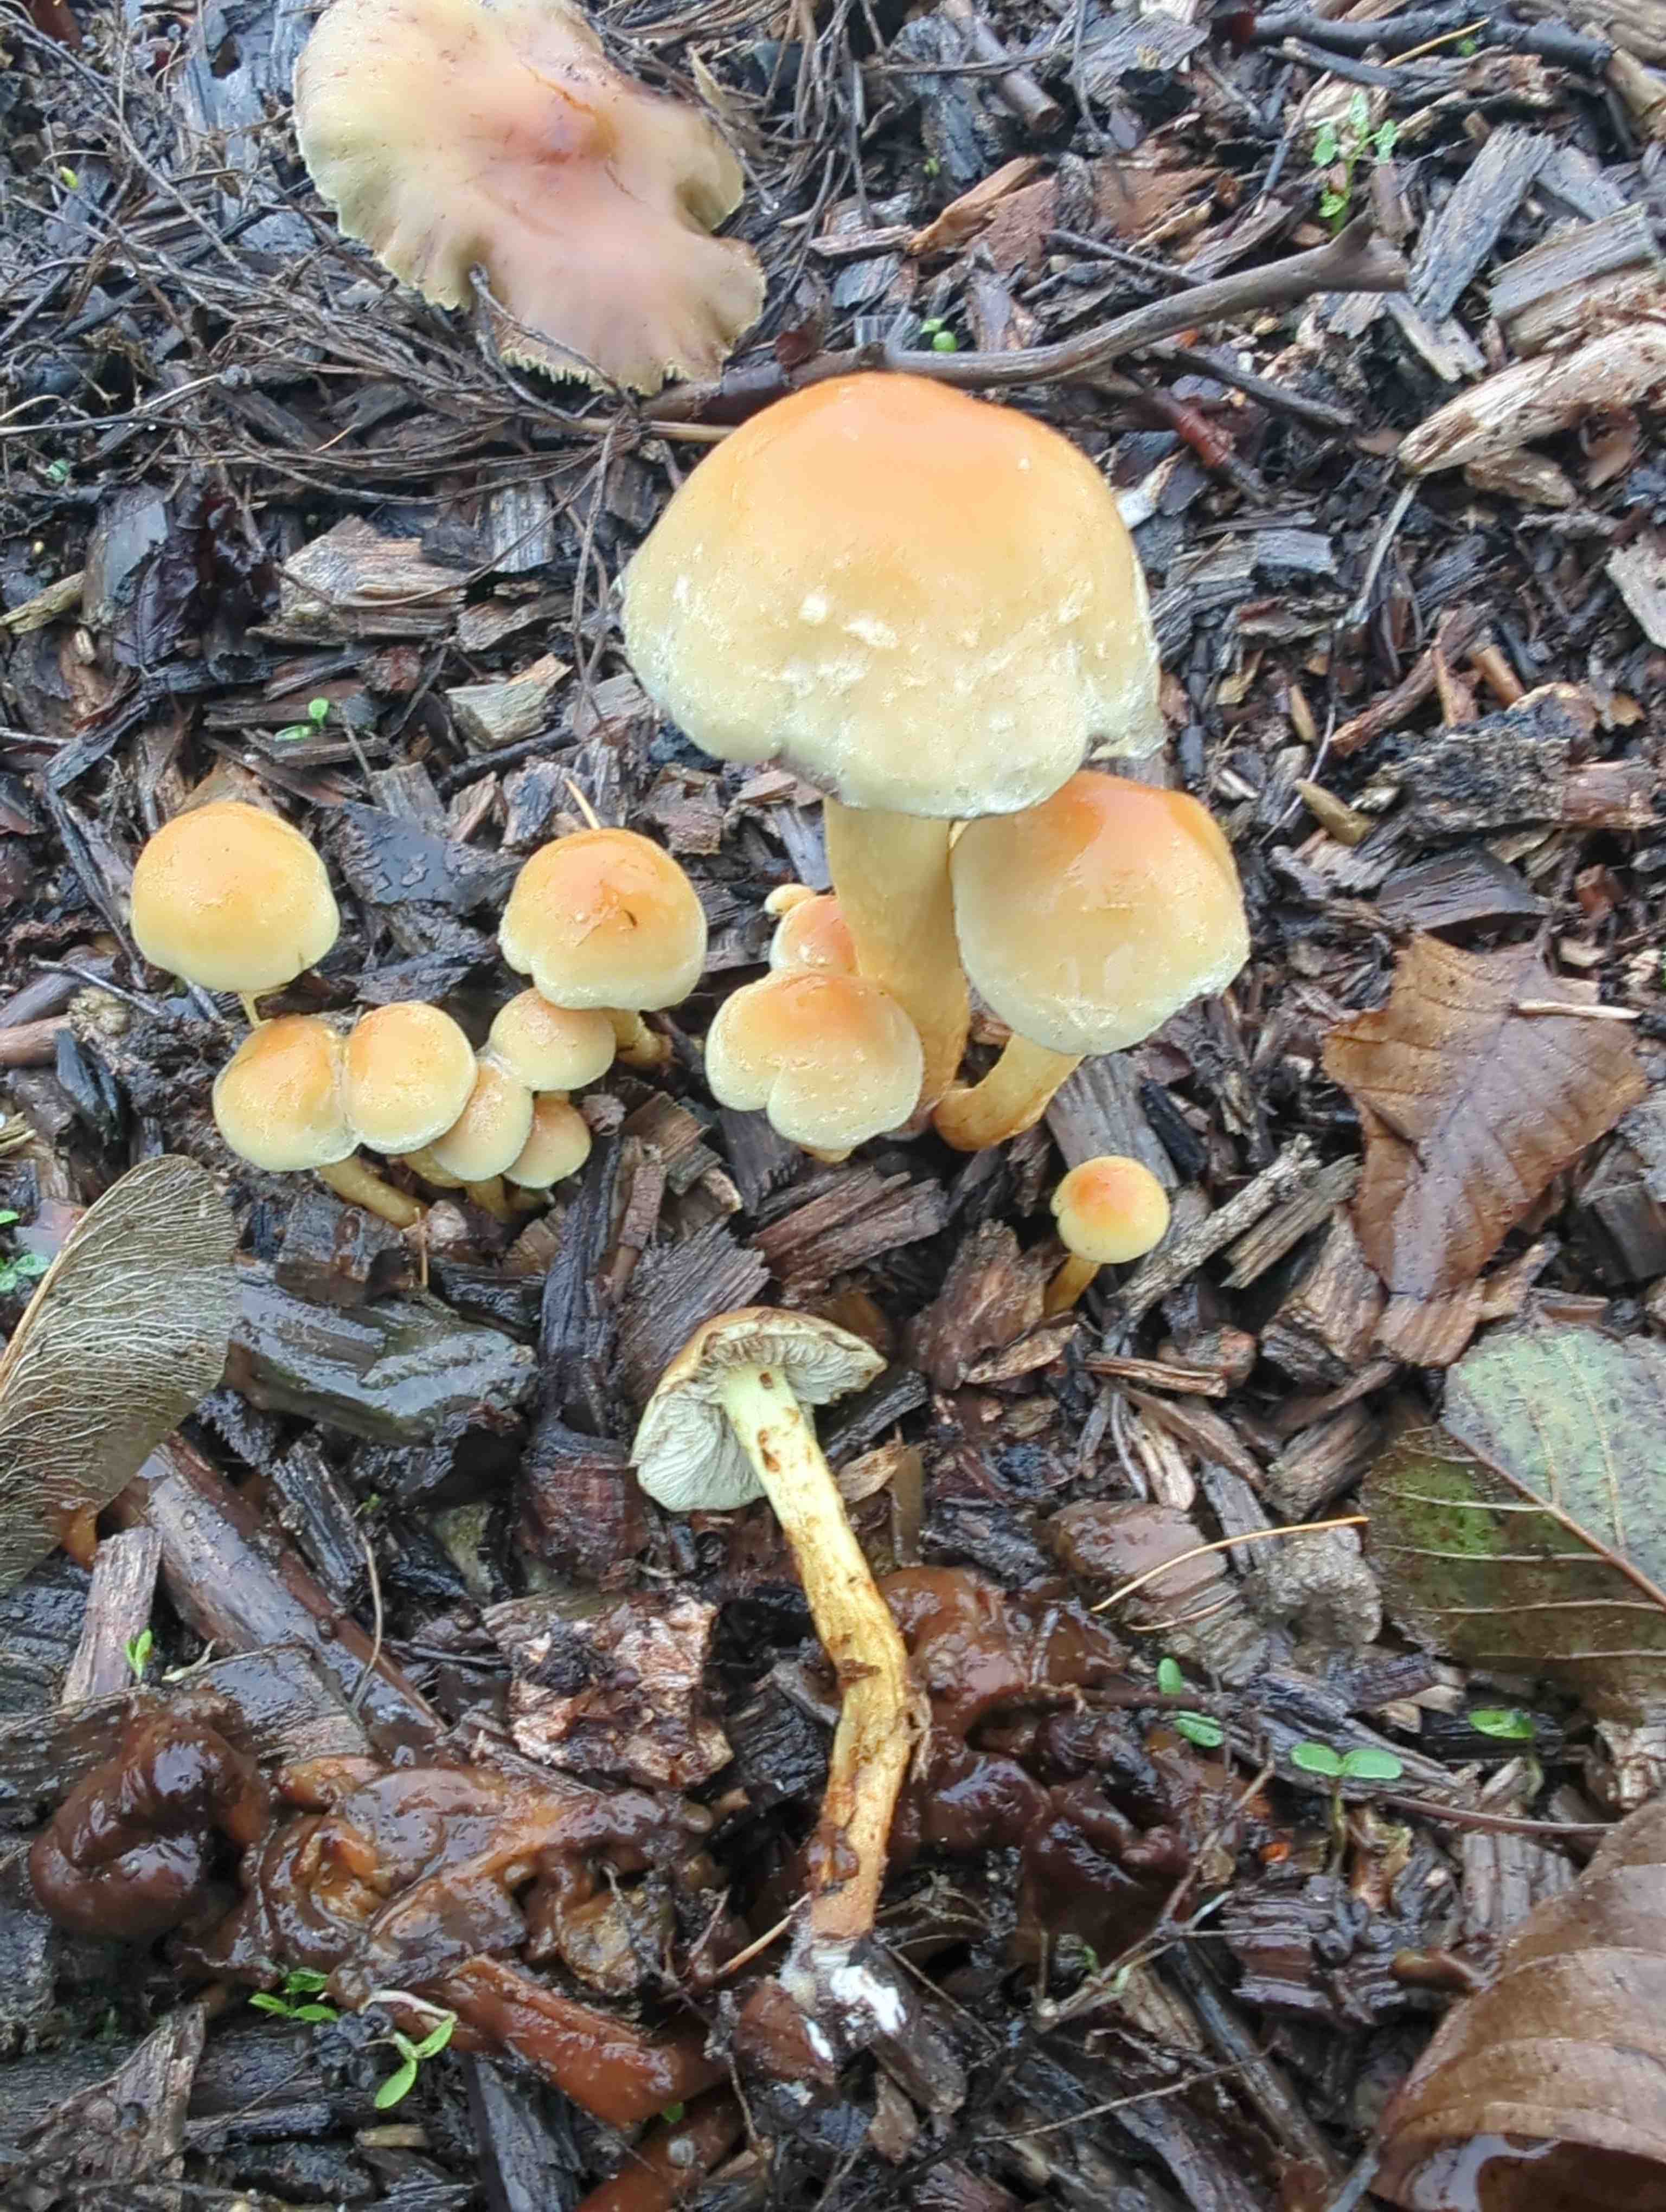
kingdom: Fungi
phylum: Basidiomycota
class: Agaricomycetes
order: Agaricales
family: Strophariaceae
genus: Hypholoma
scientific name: Hypholoma fasciculare
